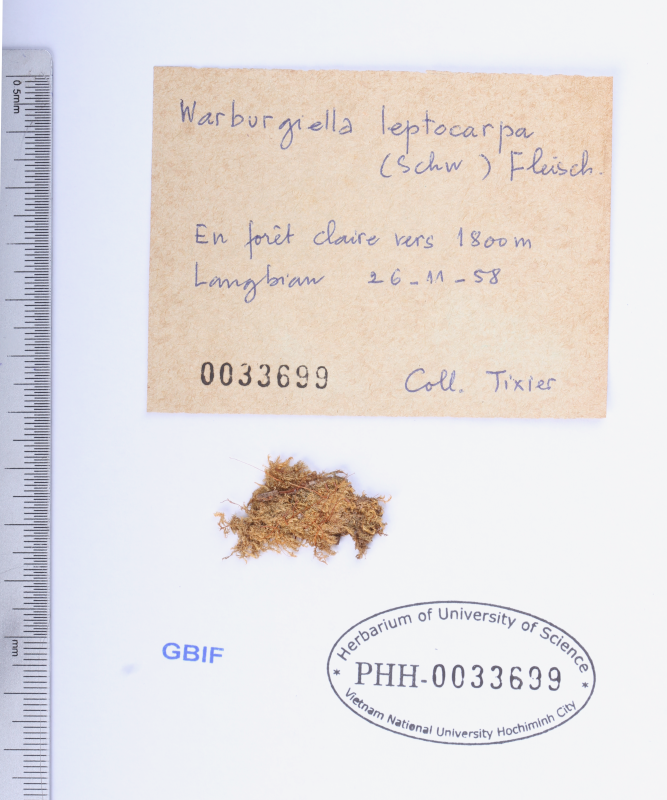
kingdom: Plantae
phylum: Bryophyta
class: Bryopsida
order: Hypnales
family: Sematophyllaceae
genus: Warburgiella
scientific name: Warburgiella leptocarpos
